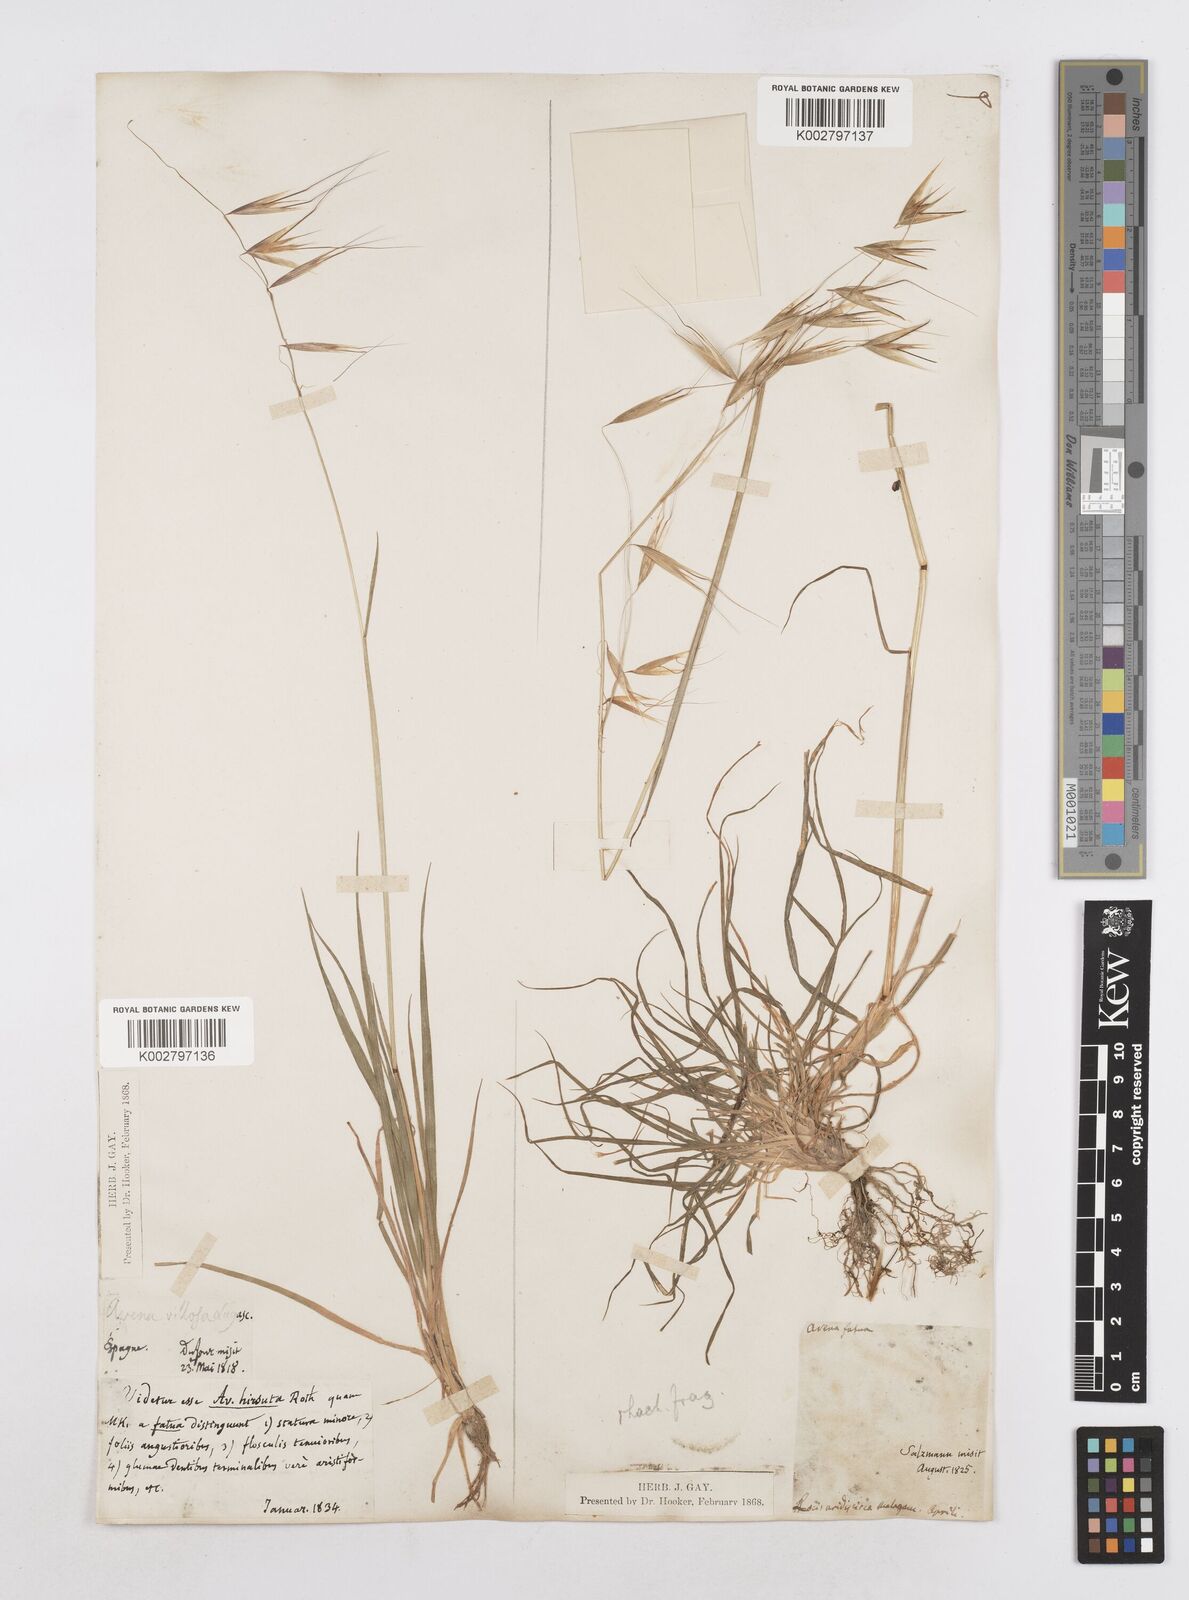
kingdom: Plantae
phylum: Tracheophyta
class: Liliopsida
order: Poales
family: Poaceae
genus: Avena
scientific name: Avena
